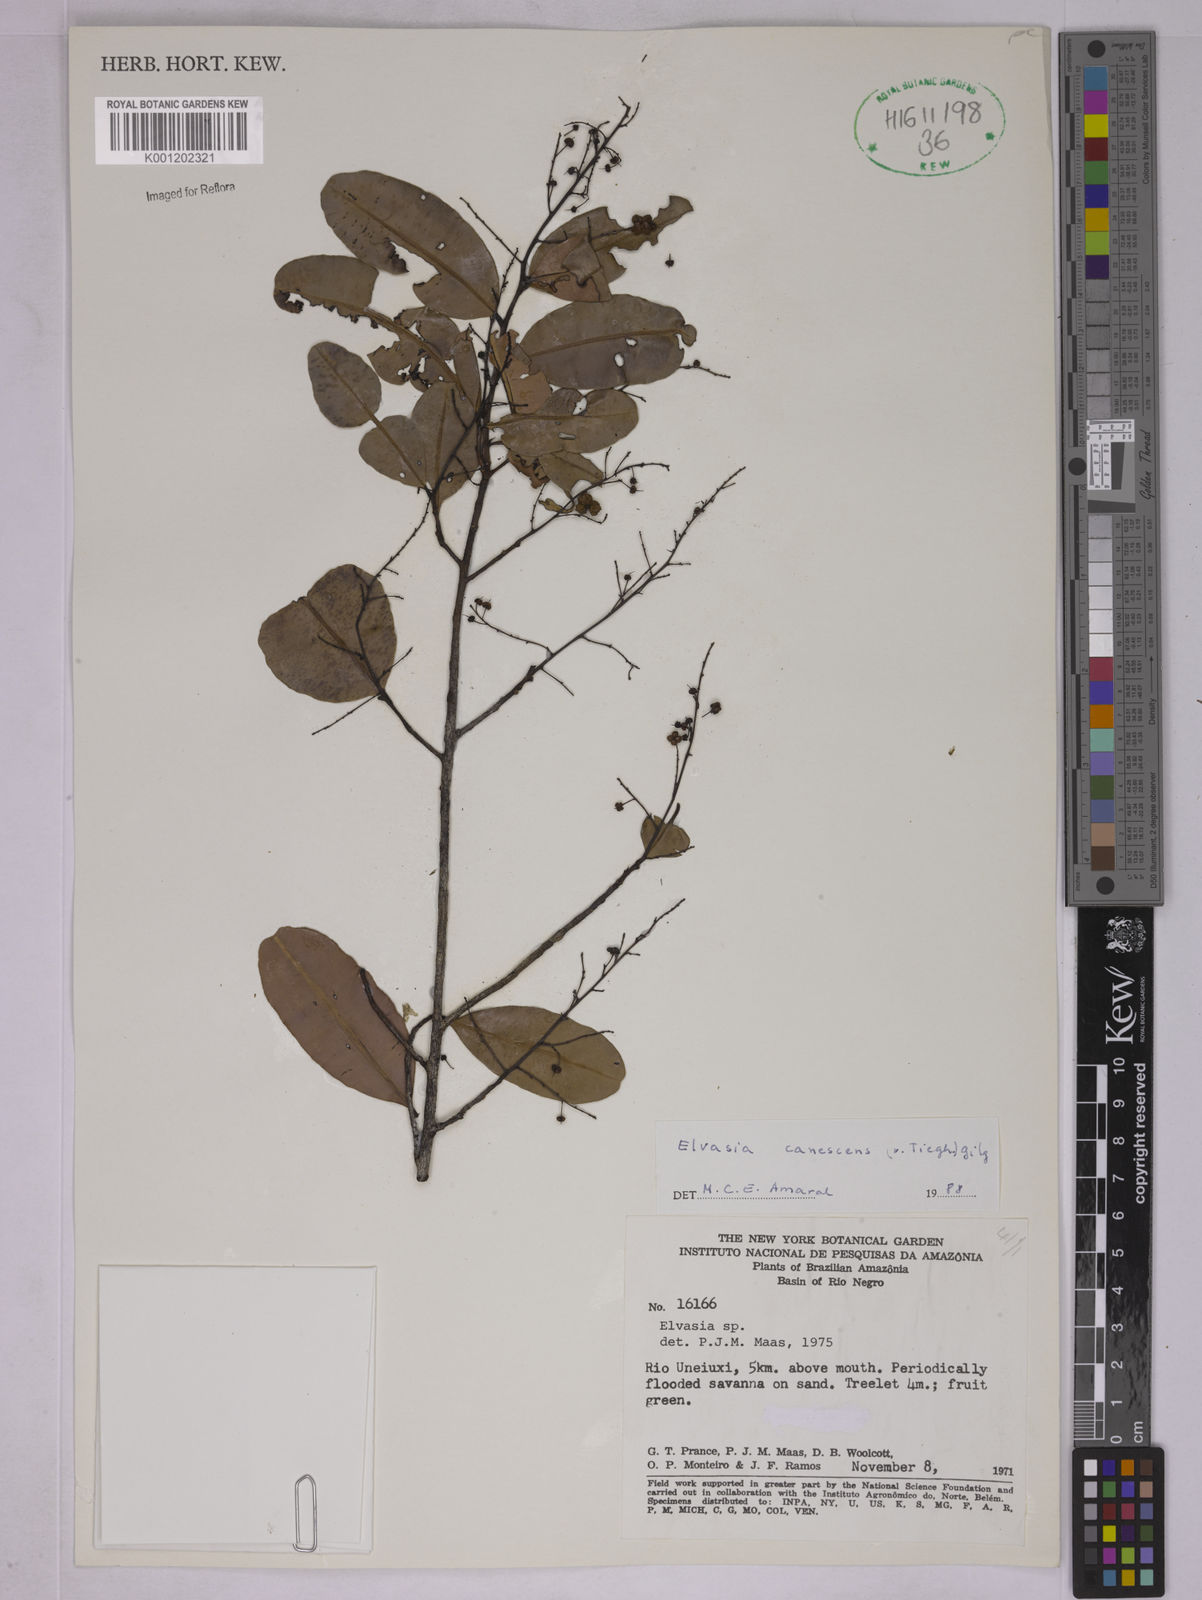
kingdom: Plantae
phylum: Tracheophyta
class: Magnoliopsida
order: Malpighiales
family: Ochnaceae
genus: Elvasia
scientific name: Elvasia canescens
